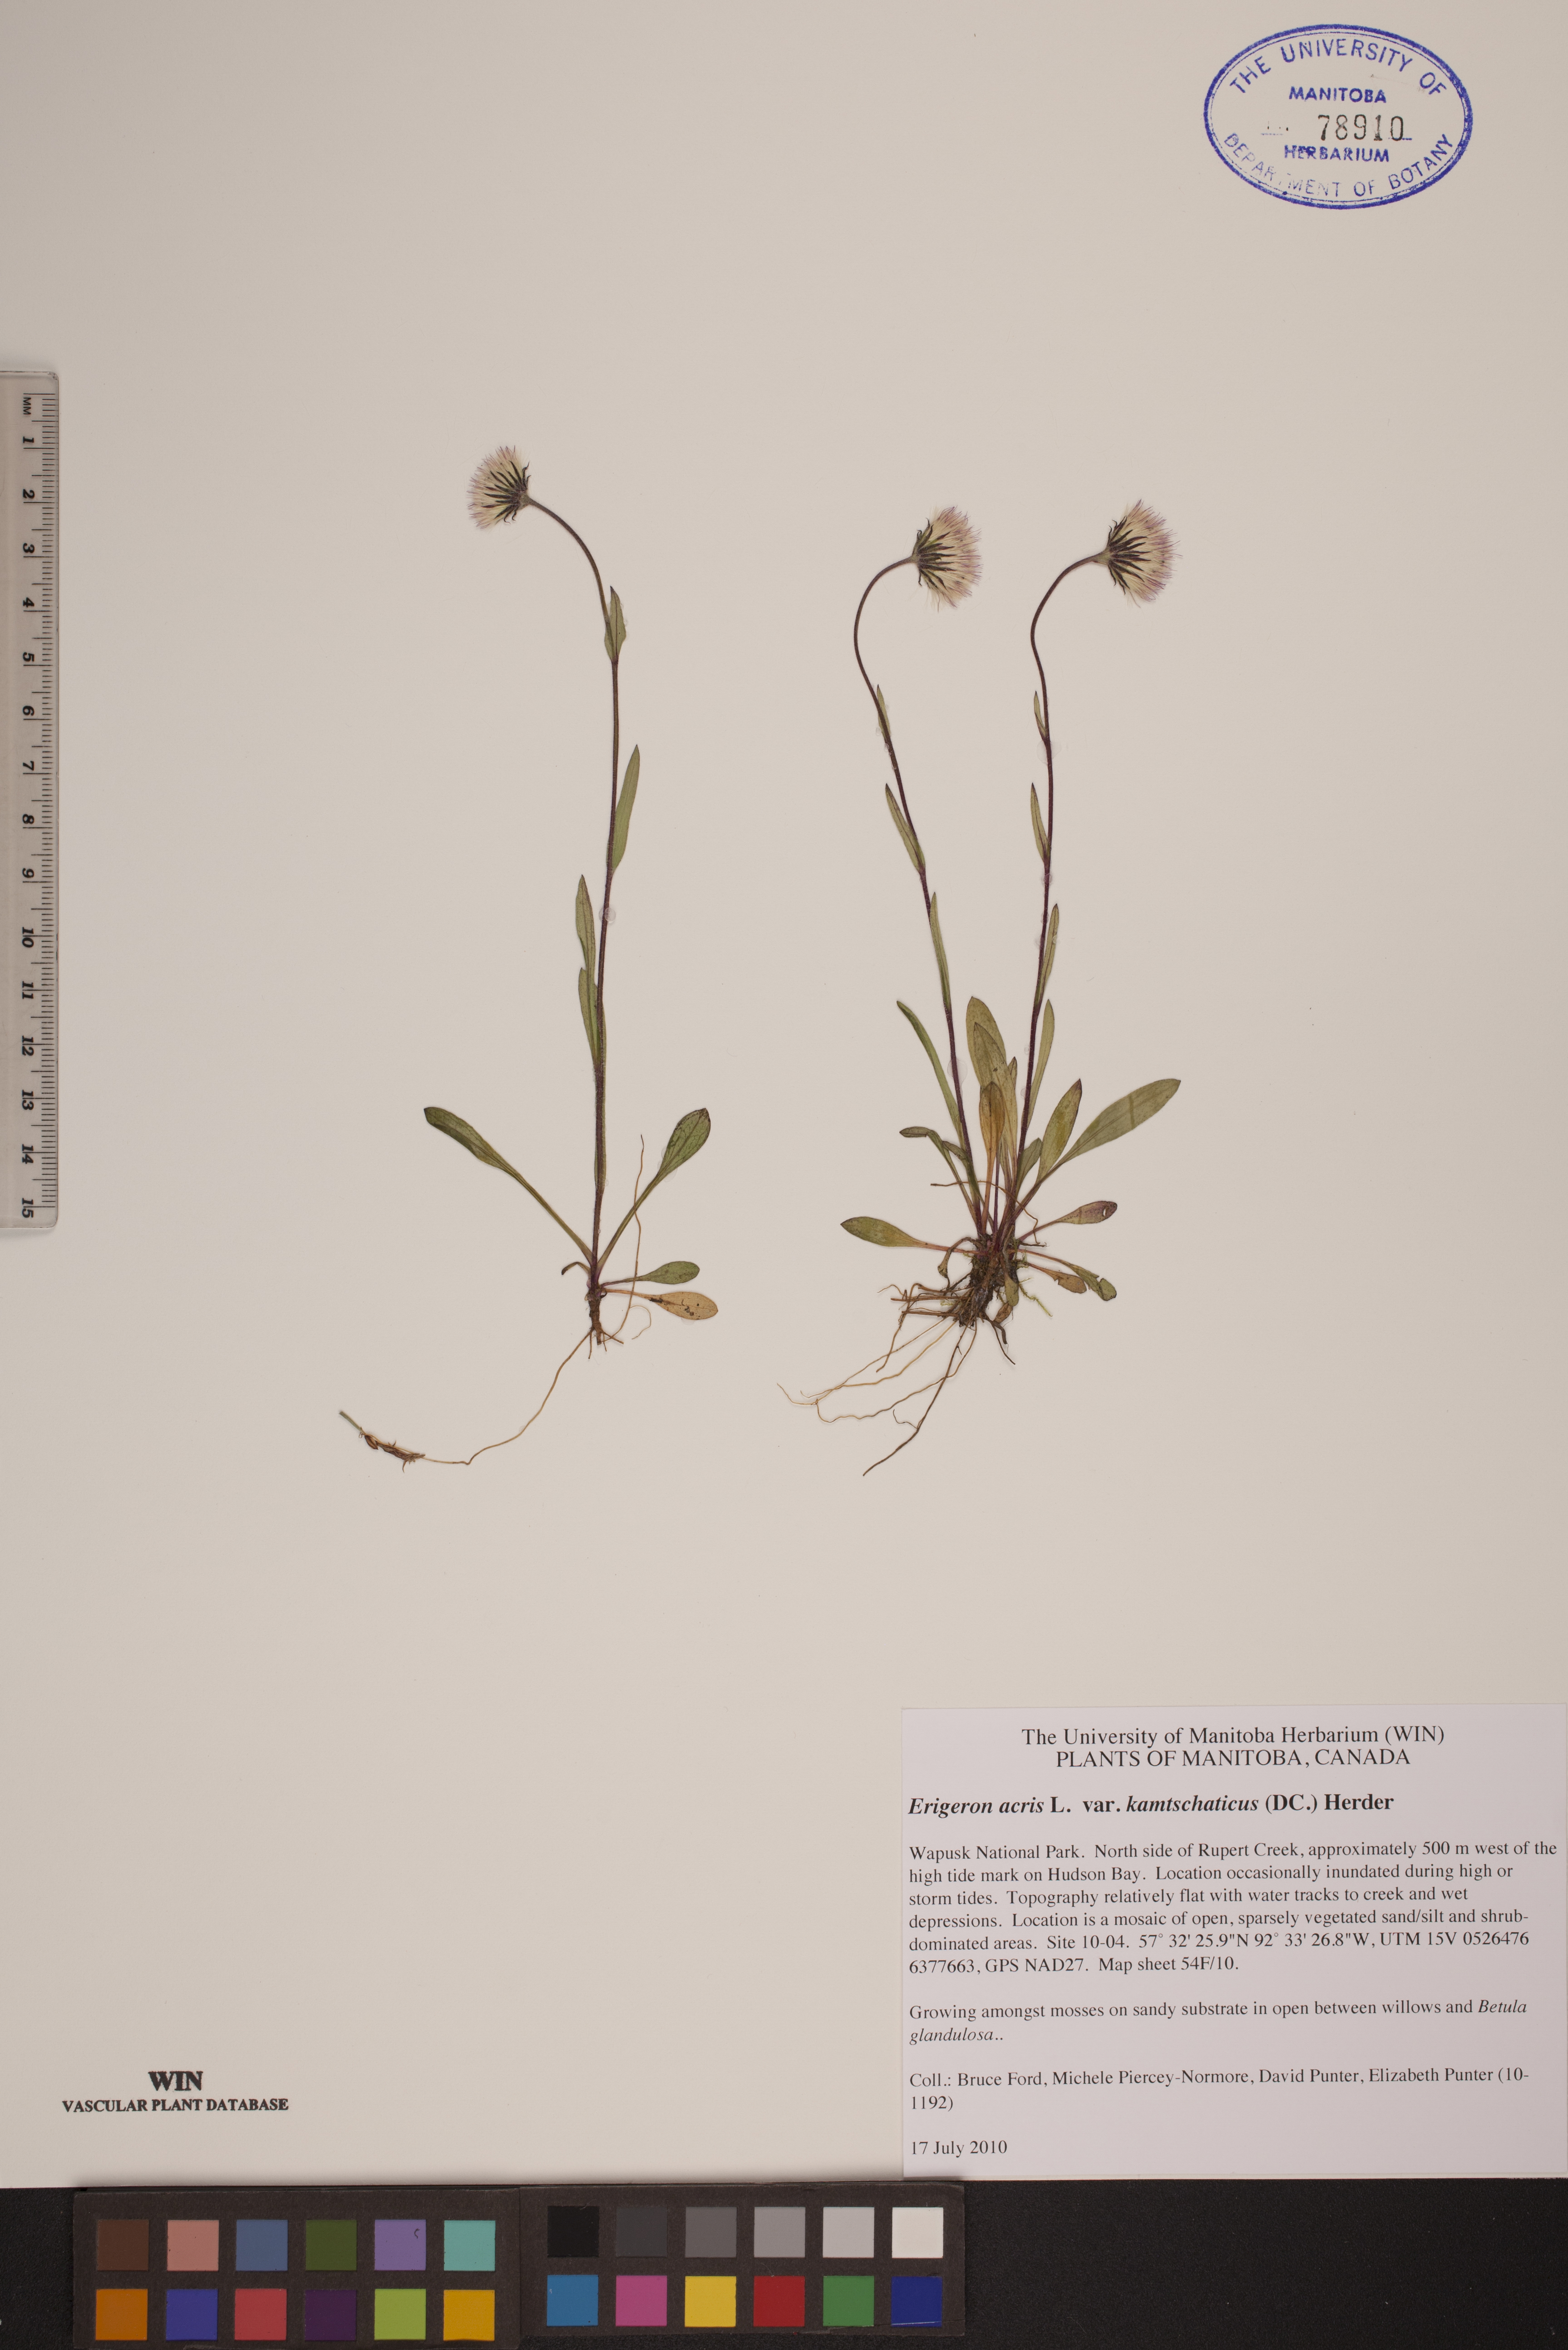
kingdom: Plantae
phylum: Tracheophyta
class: Magnoliopsida
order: Asterales
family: Asteraceae
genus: Erigeron
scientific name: Erigeron kamtschaticus
